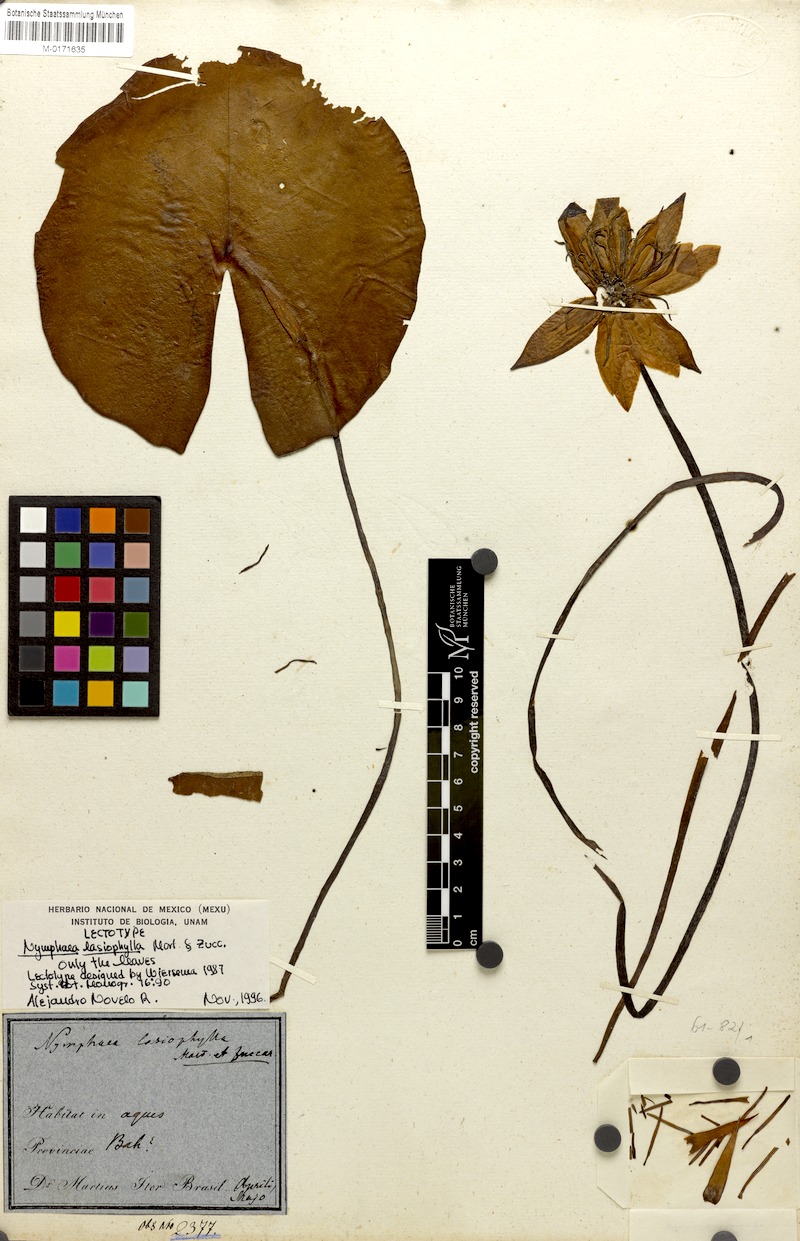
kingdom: Plantae
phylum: Tracheophyta
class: Magnoliopsida
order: Nymphaeales
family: Nymphaeaceae
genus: Nymphaea
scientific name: Nymphaea lasiophylla
